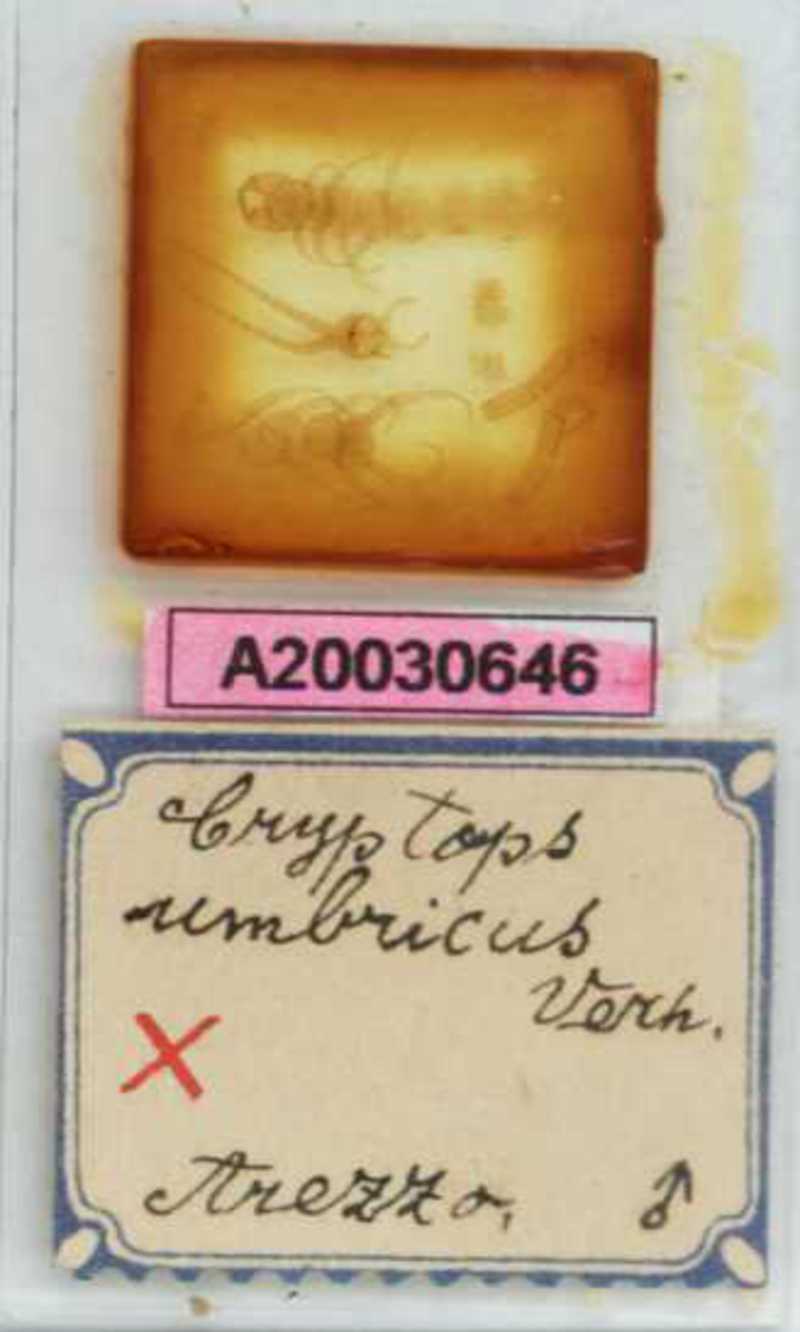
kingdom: Animalia
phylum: Arthropoda
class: Chilopoda
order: Scolopendromorpha
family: Cryptopidae
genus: Cryptops
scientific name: Cryptops umbricus
